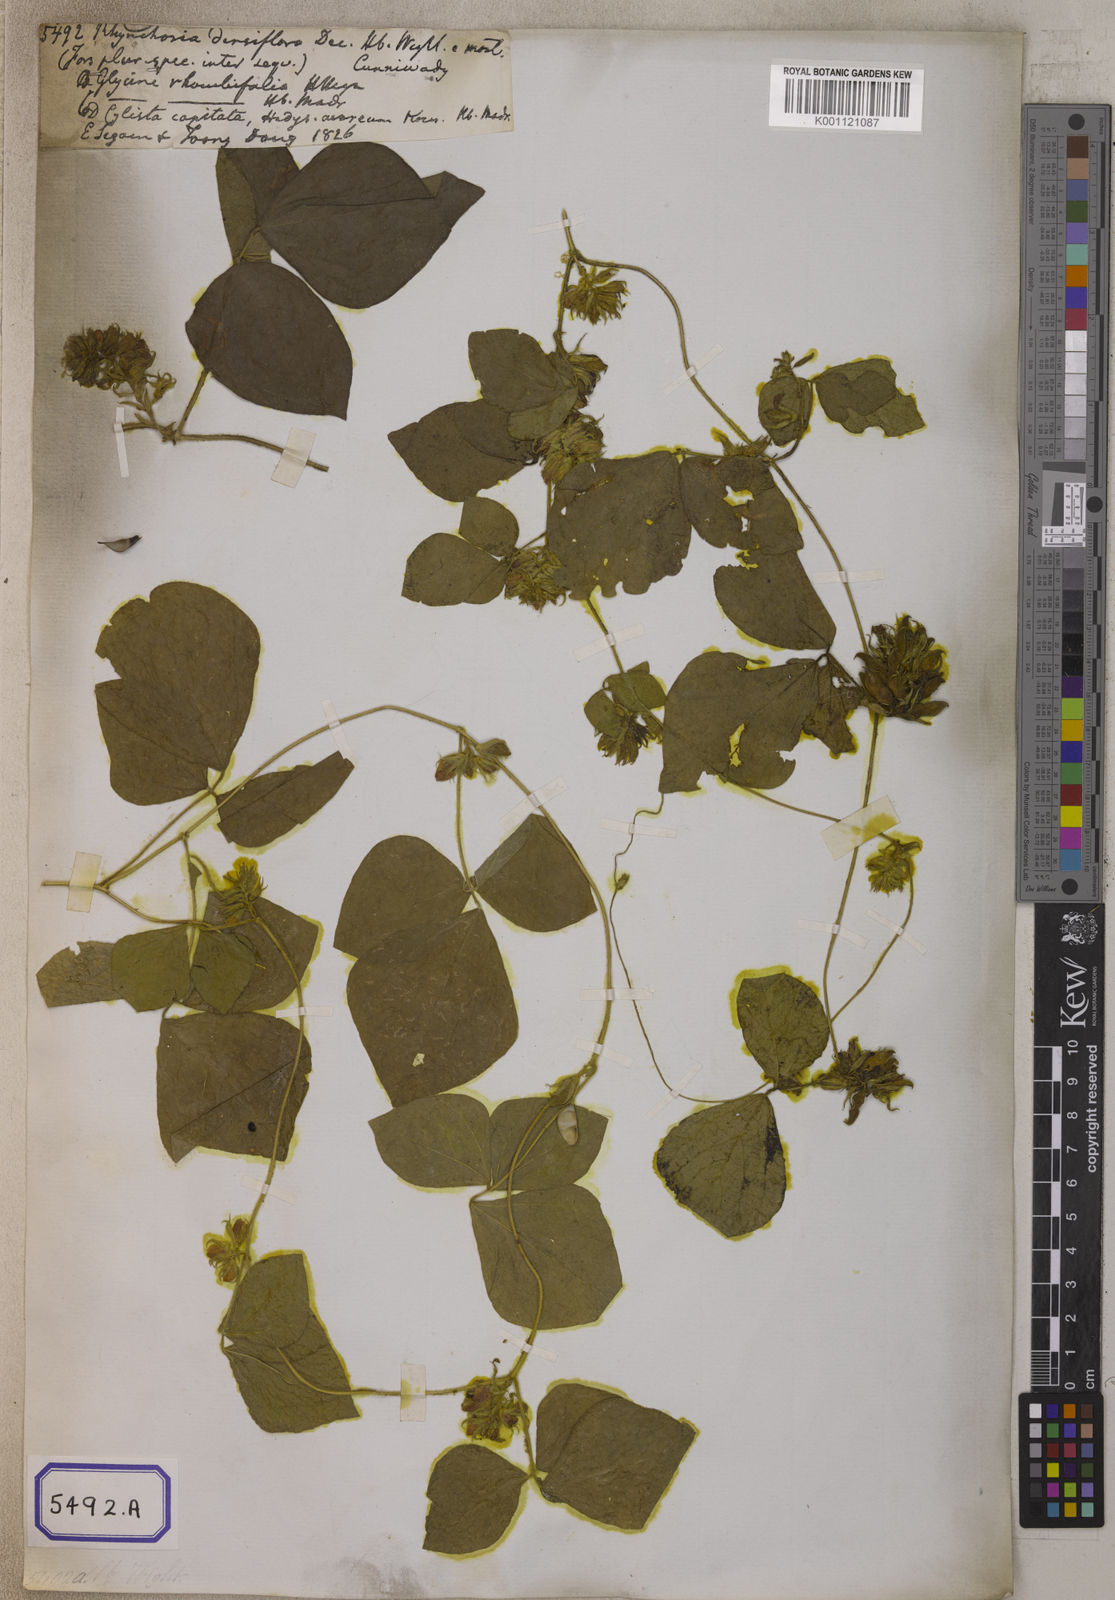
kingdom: Plantae
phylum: Tracheophyta
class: Magnoliopsida
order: Fabales
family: Fabaceae
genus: Rhynchosia
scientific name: Rhynchosia aurea
